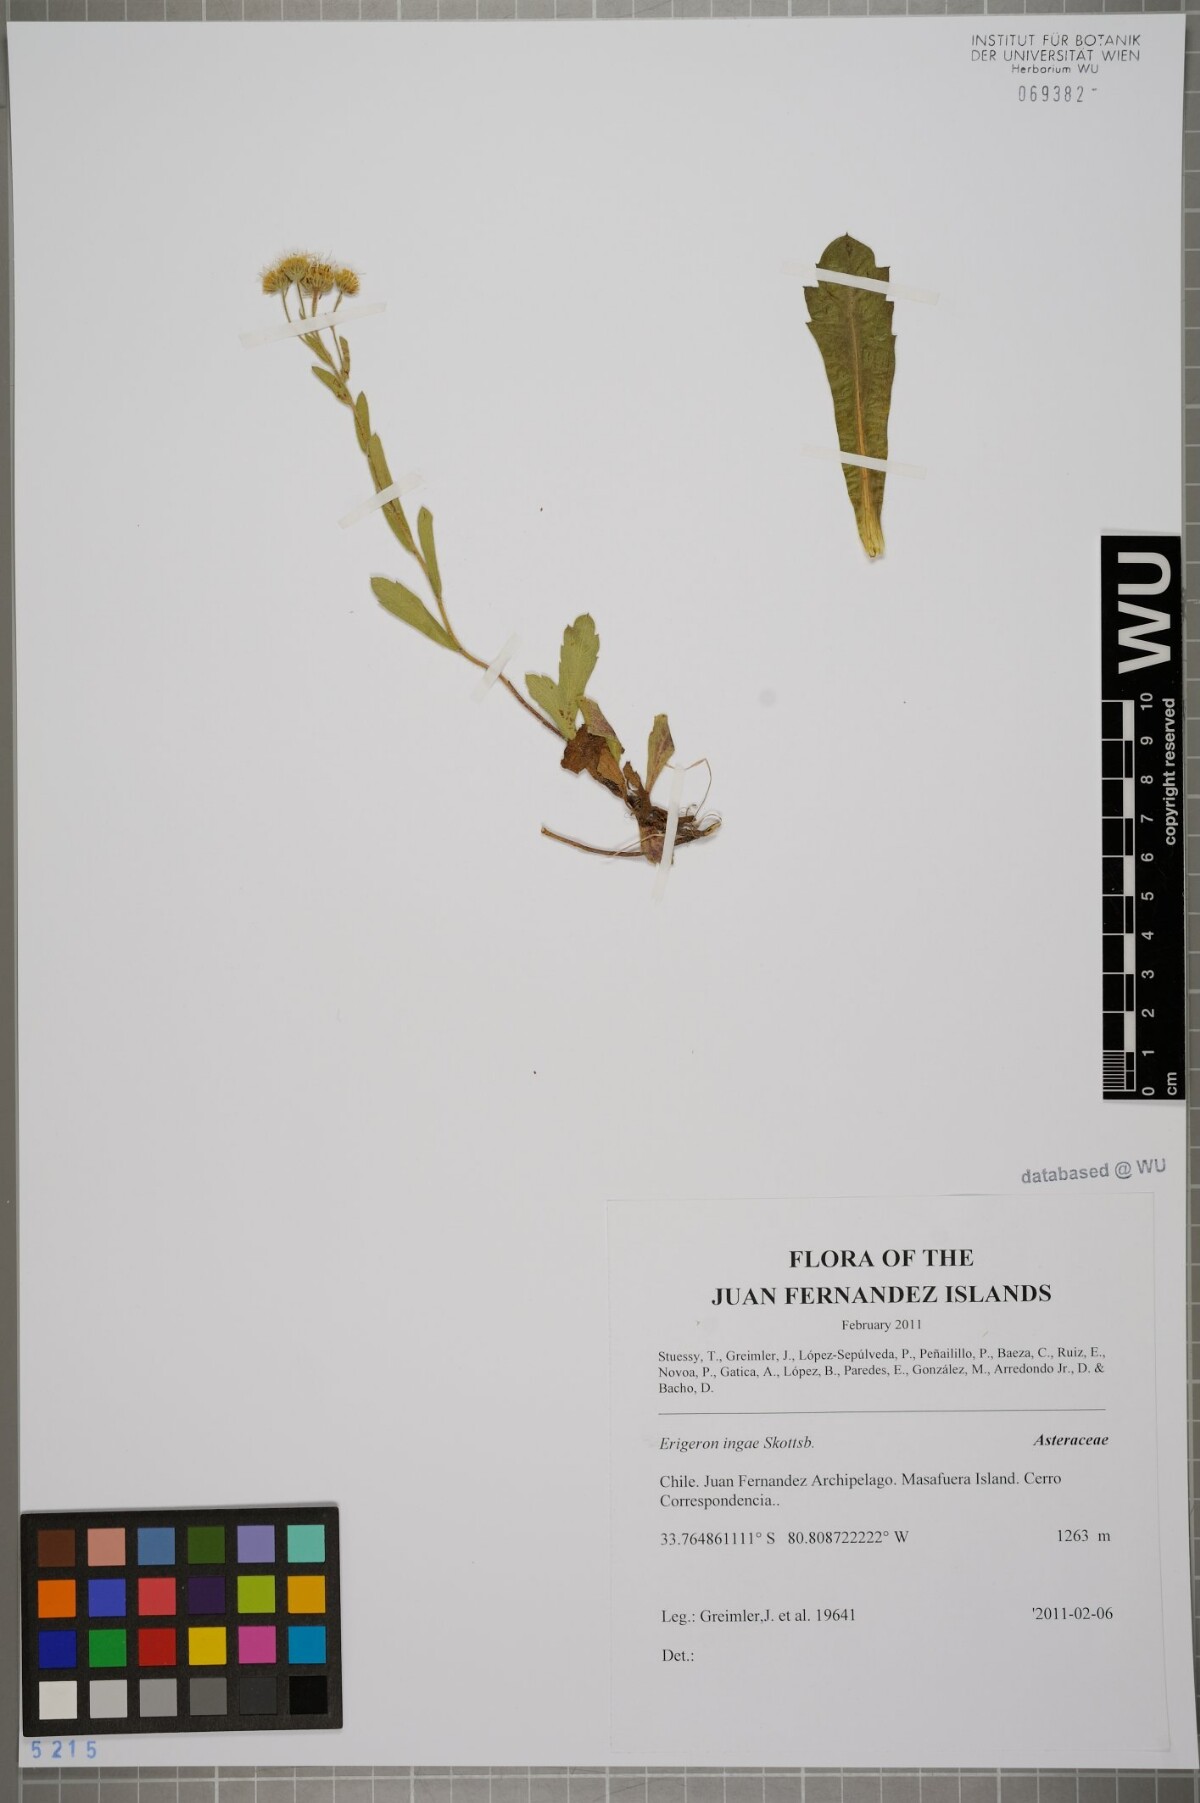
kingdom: Plantae
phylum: Tracheophyta
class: Magnoliopsida
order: Asterales
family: Asteraceae
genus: Erigeron
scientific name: Erigeron ingae
